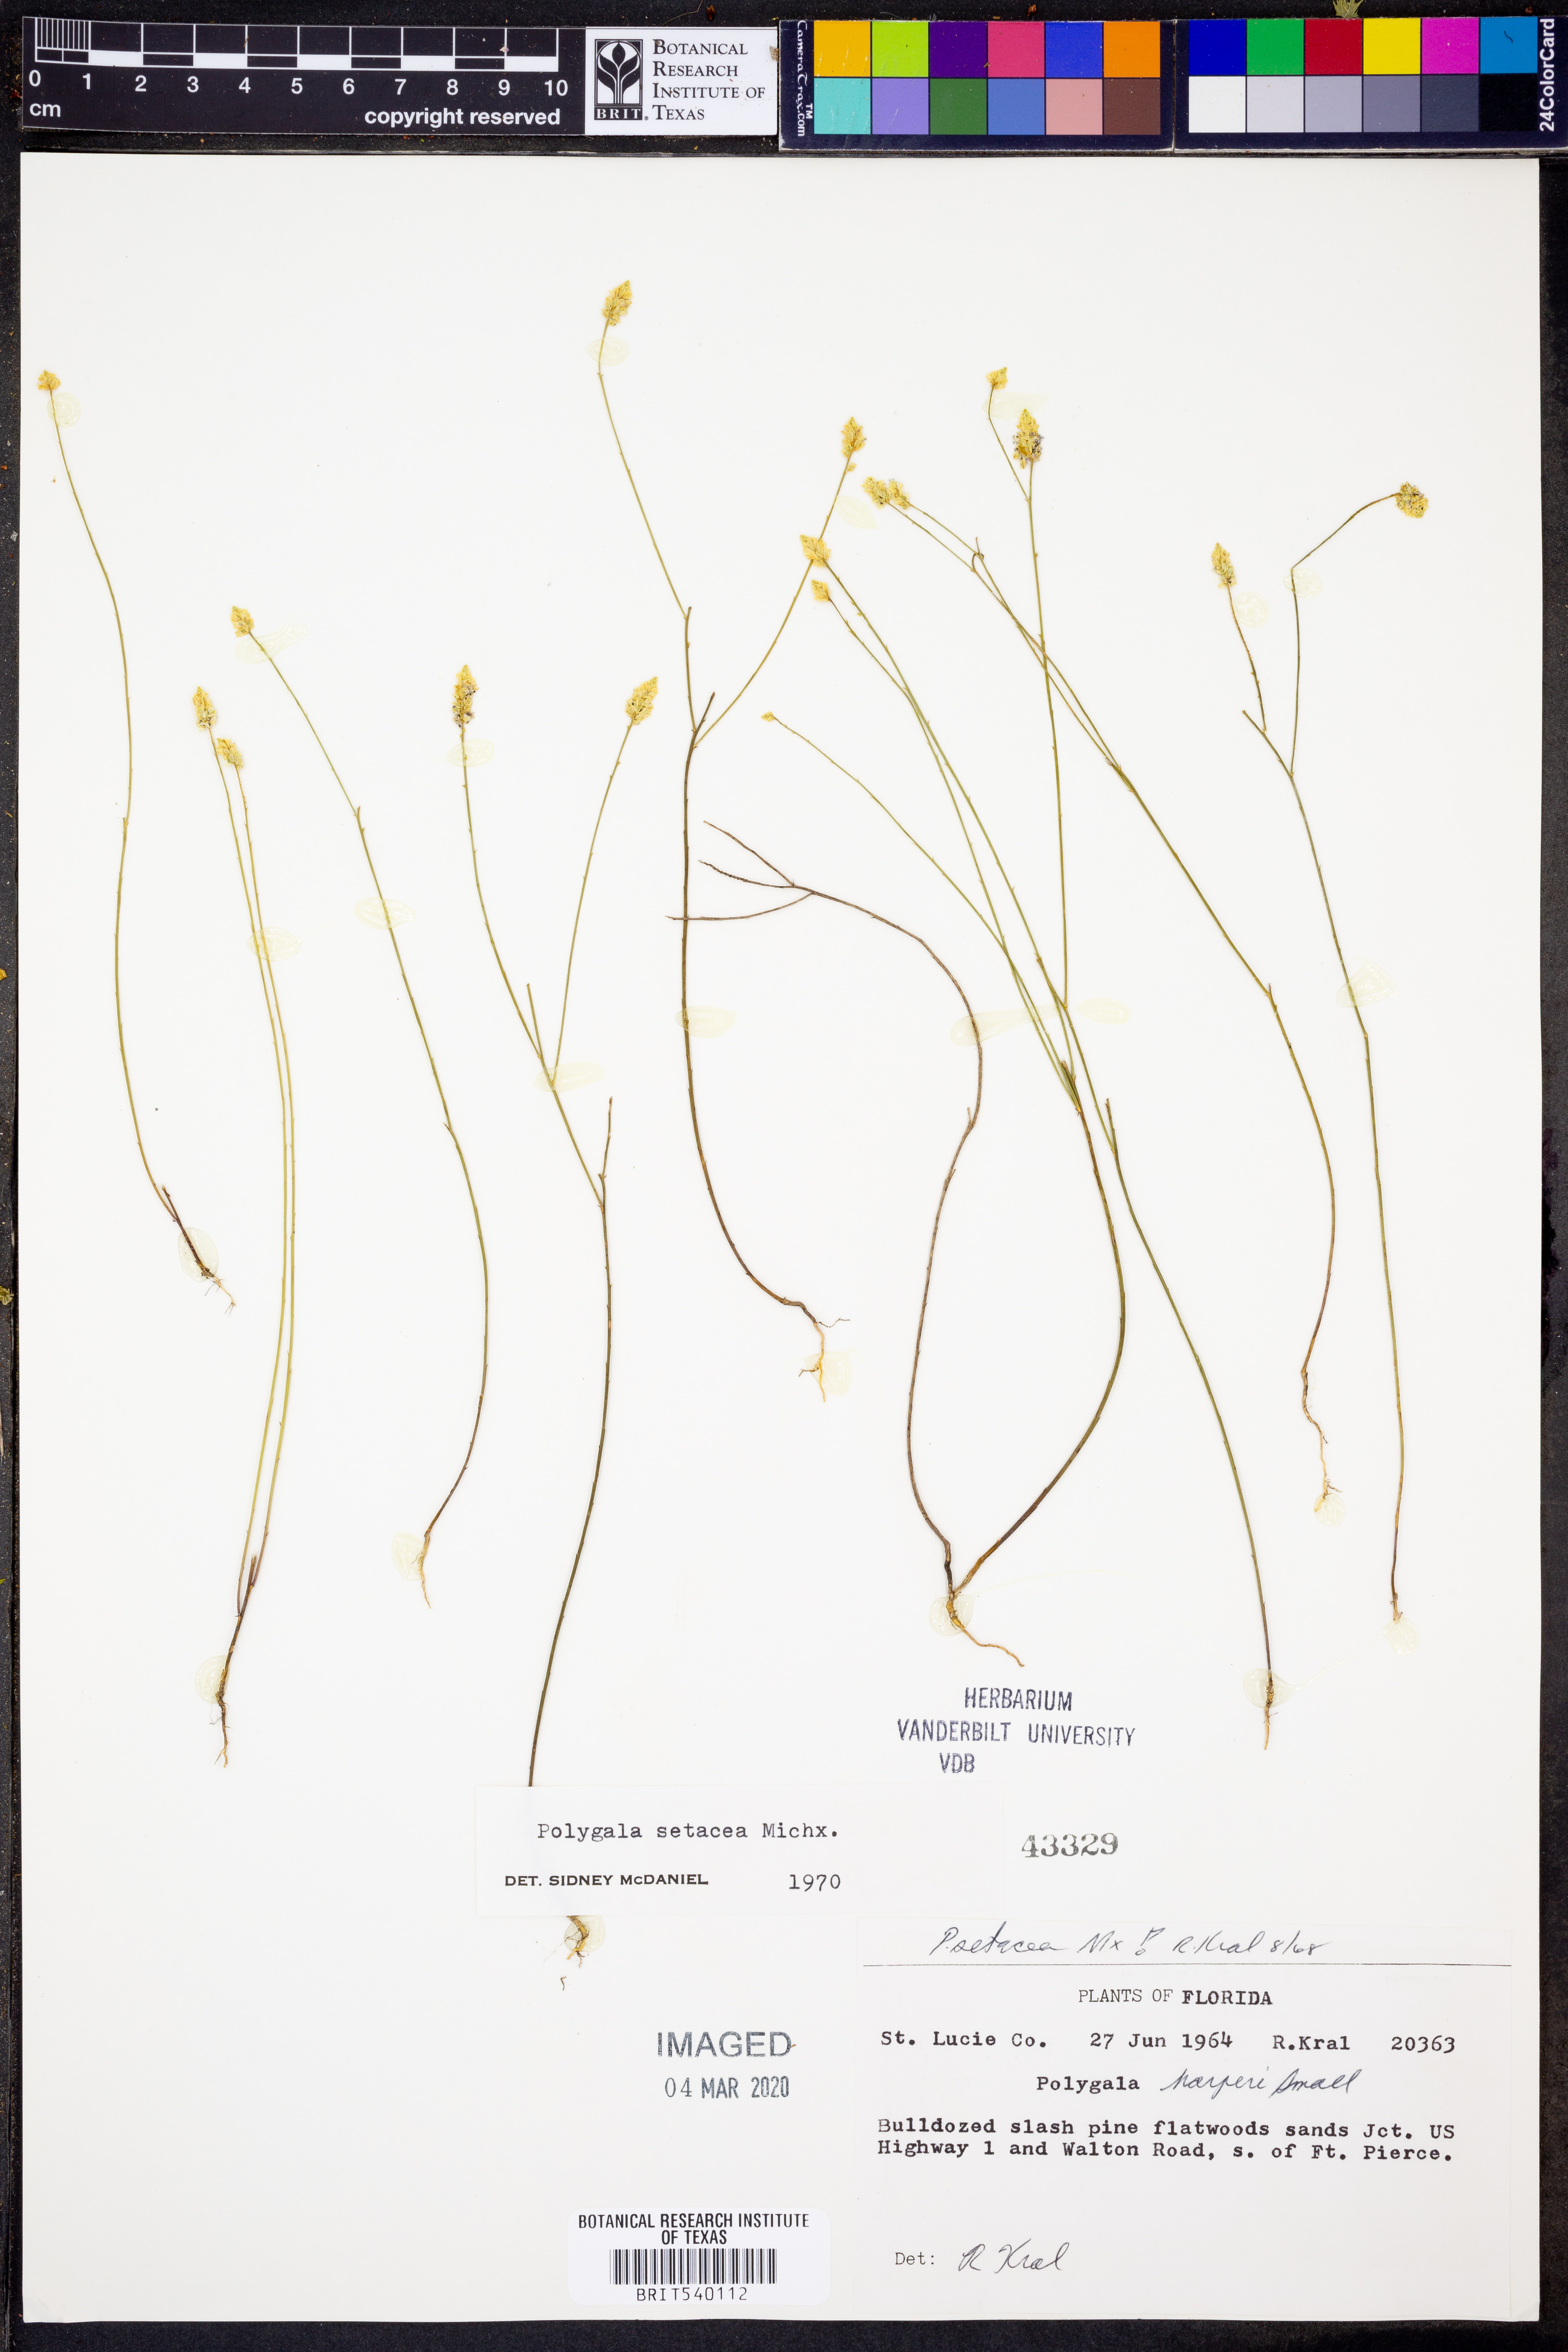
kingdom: Plantae
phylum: Tracheophyta
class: Magnoliopsida
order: Fabales
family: Polygalaceae
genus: Polygala
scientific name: Polygala setacea
